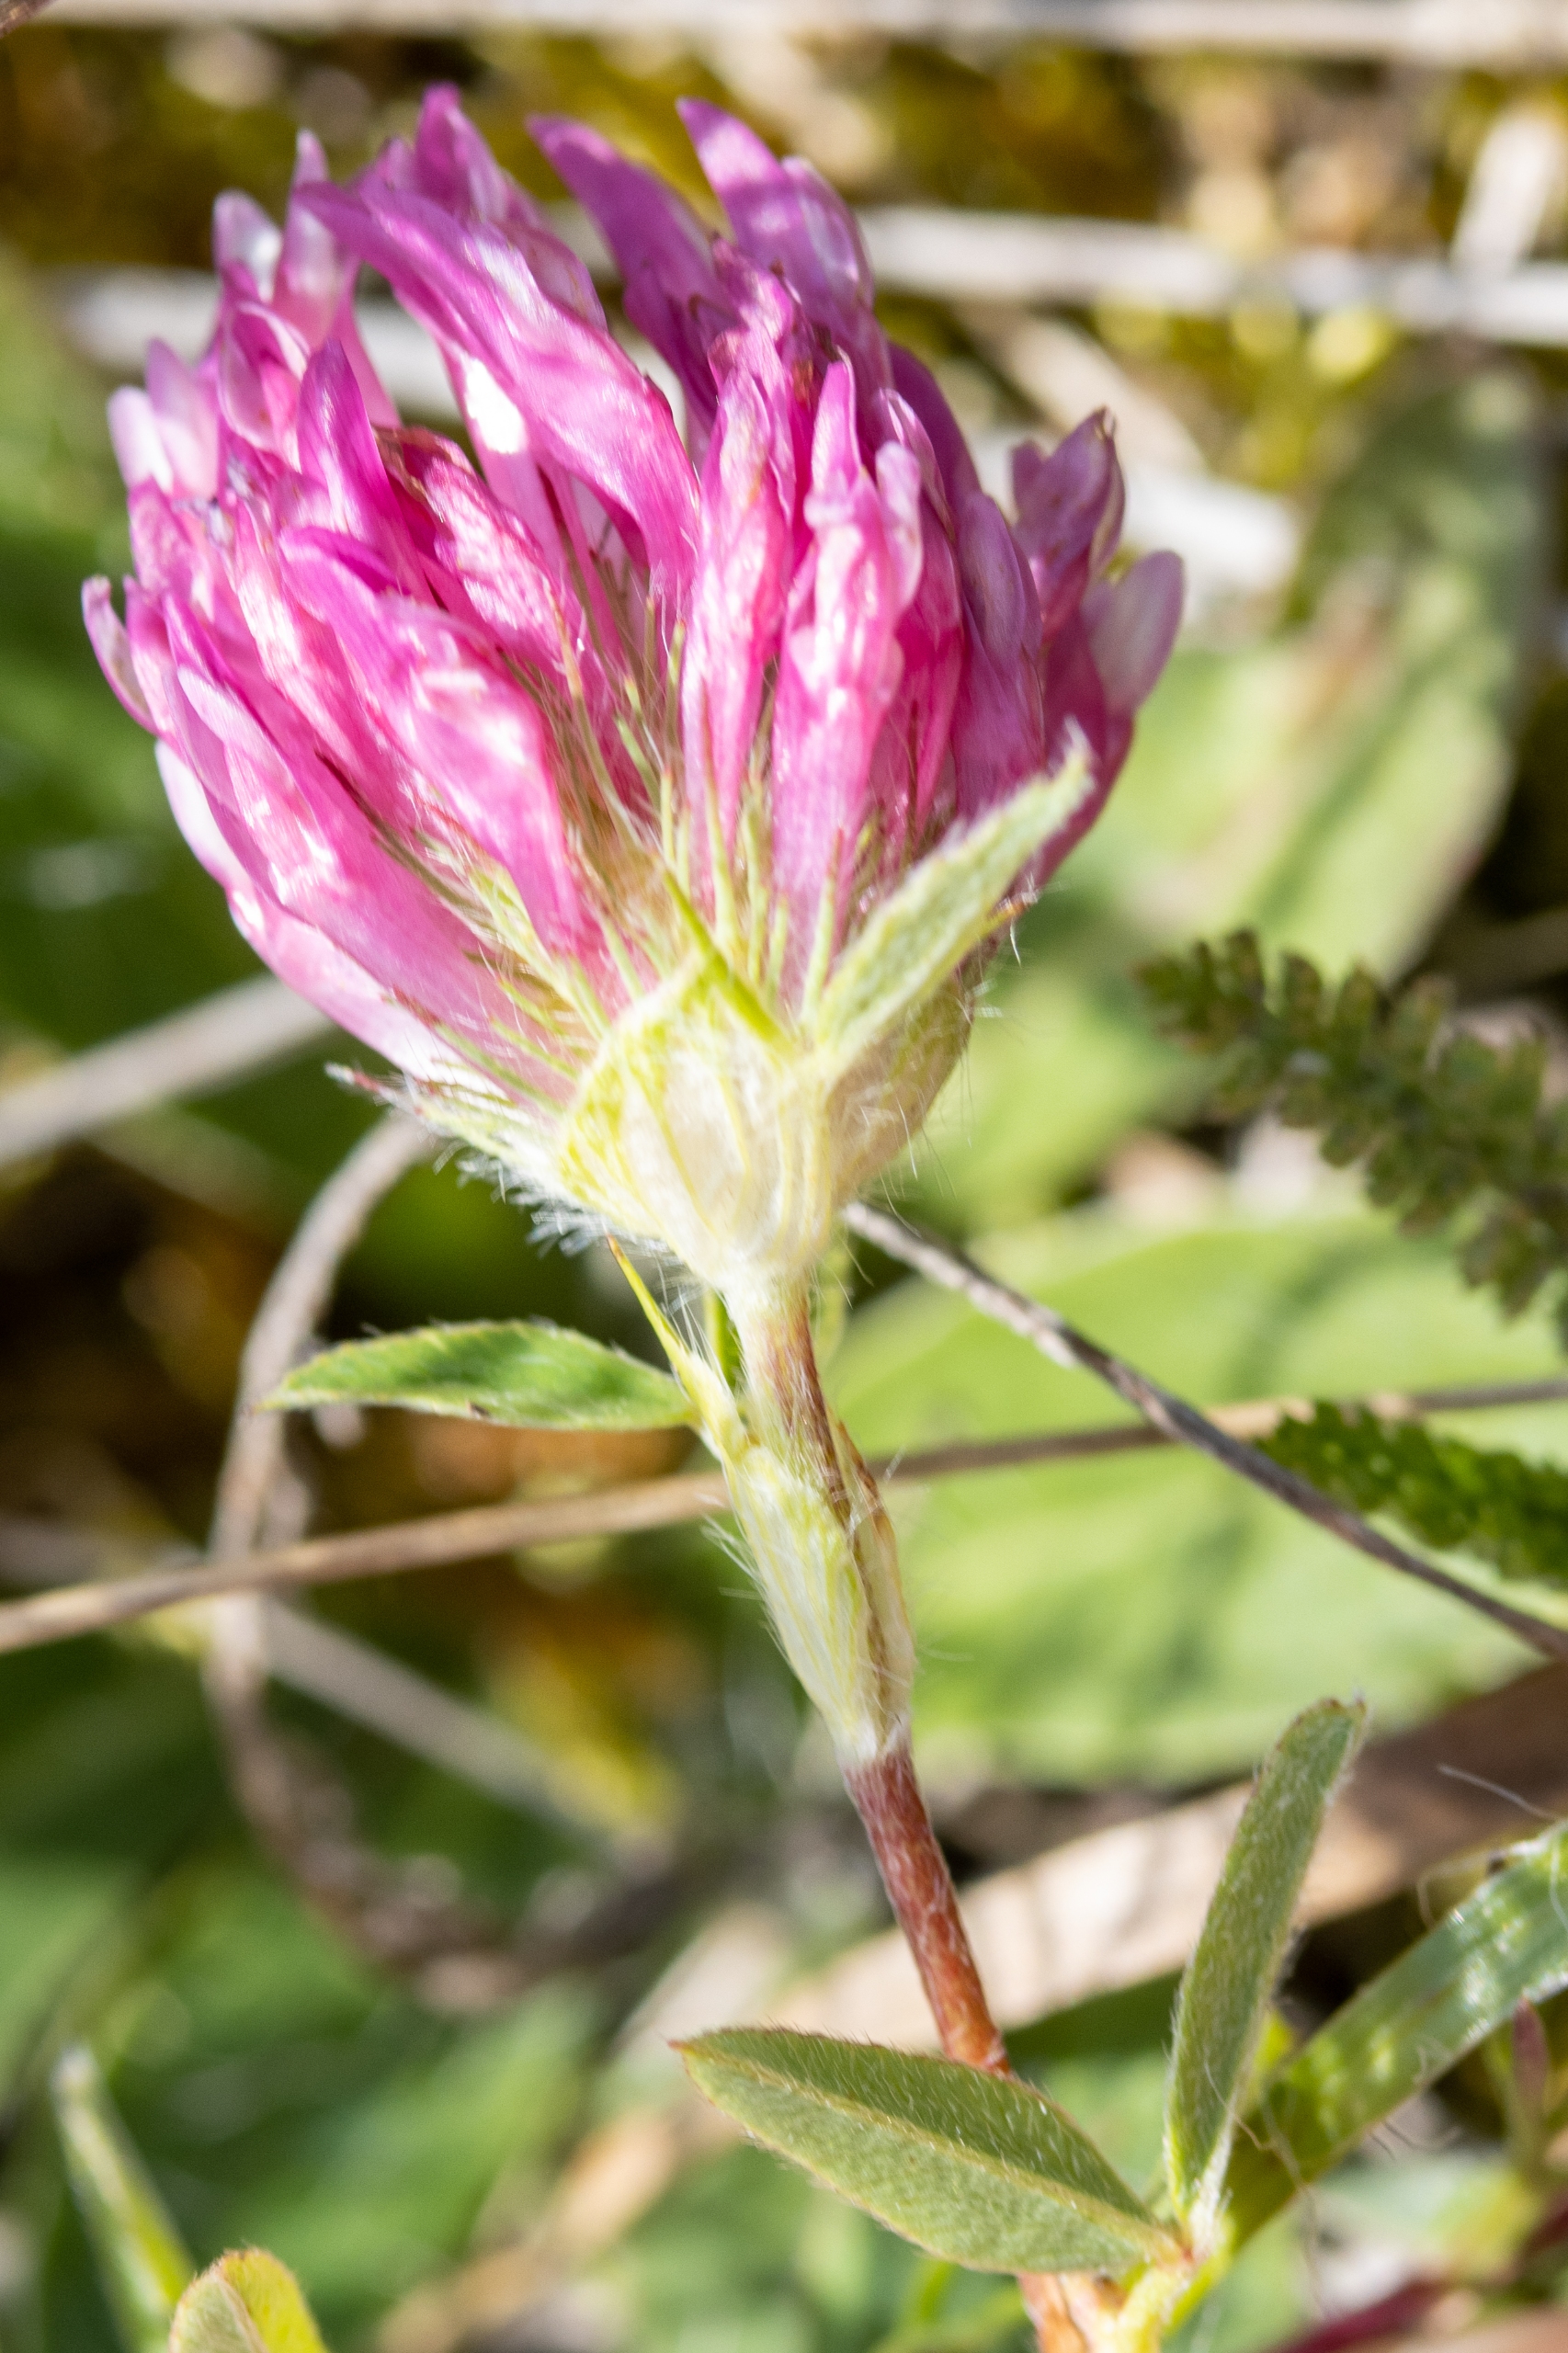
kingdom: Plantae
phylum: Tracheophyta
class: Magnoliopsida
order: Fabales
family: Fabaceae
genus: Trifolium
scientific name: Trifolium medium
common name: Bugtet kløver
